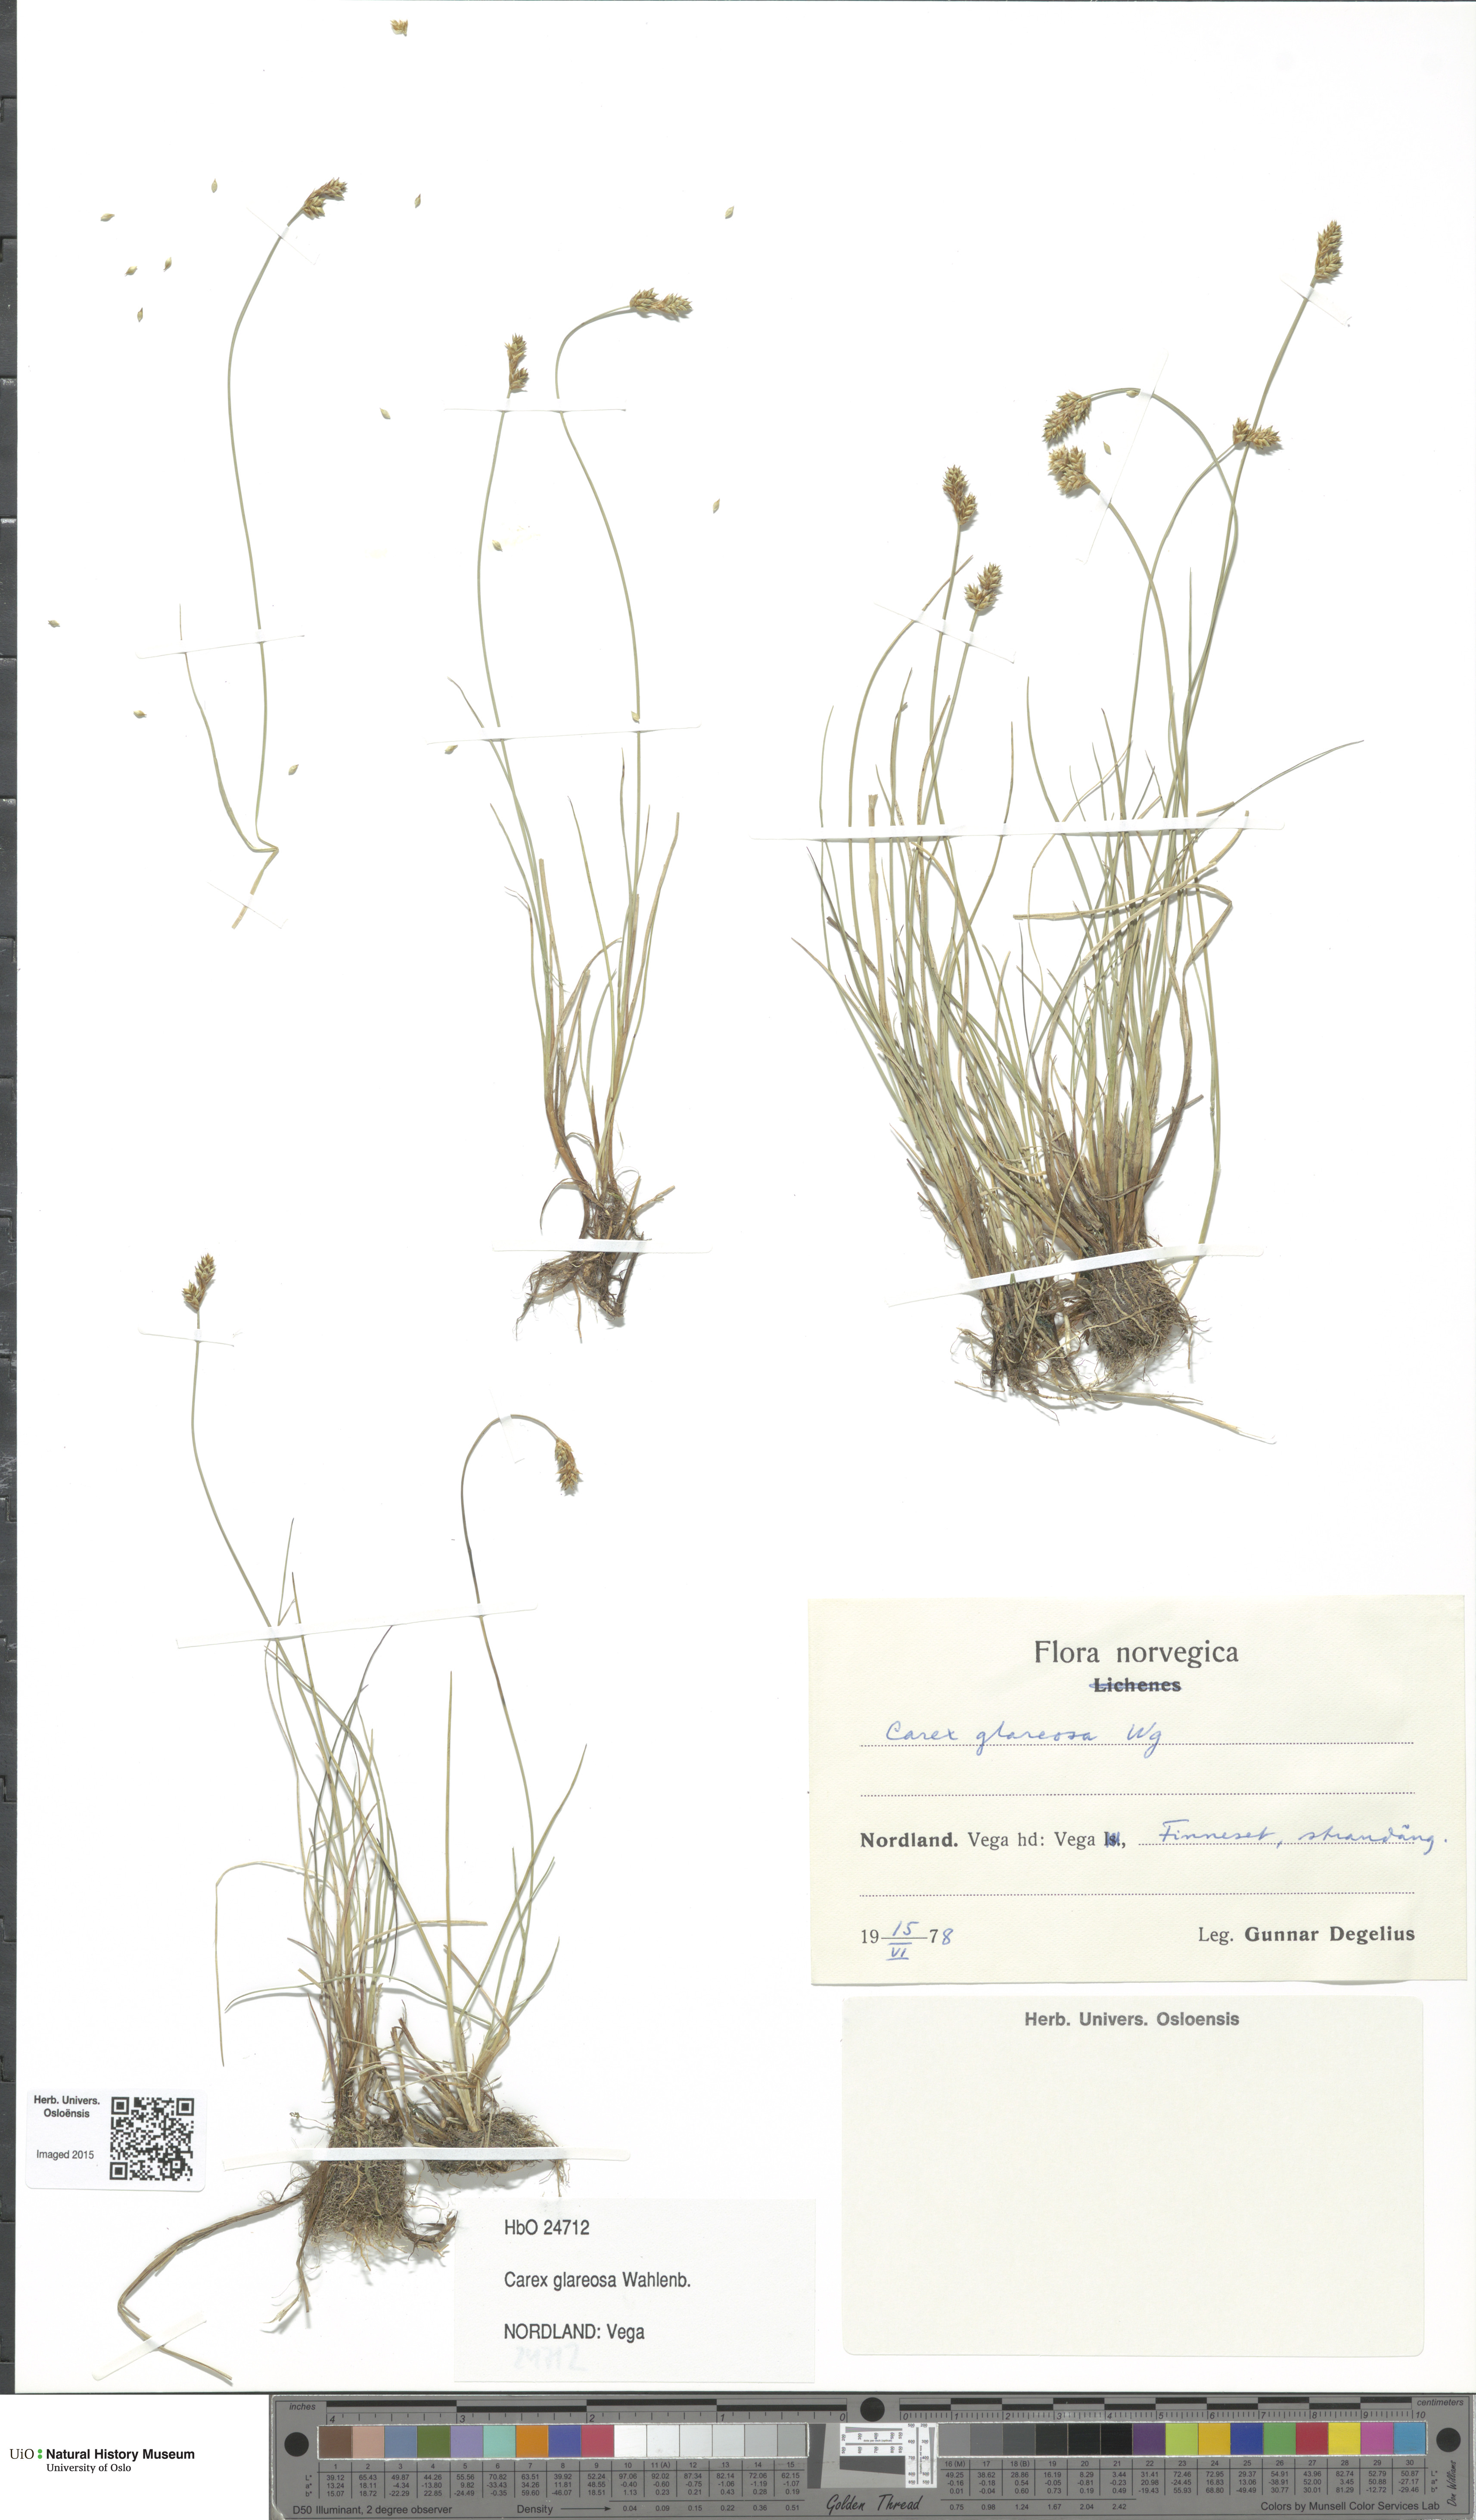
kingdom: Plantae
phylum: Tracheophyta
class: Liliopsida
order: Poales
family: Cyperaceae
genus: Carex
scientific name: Carex glareosa
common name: Clustered sedge
